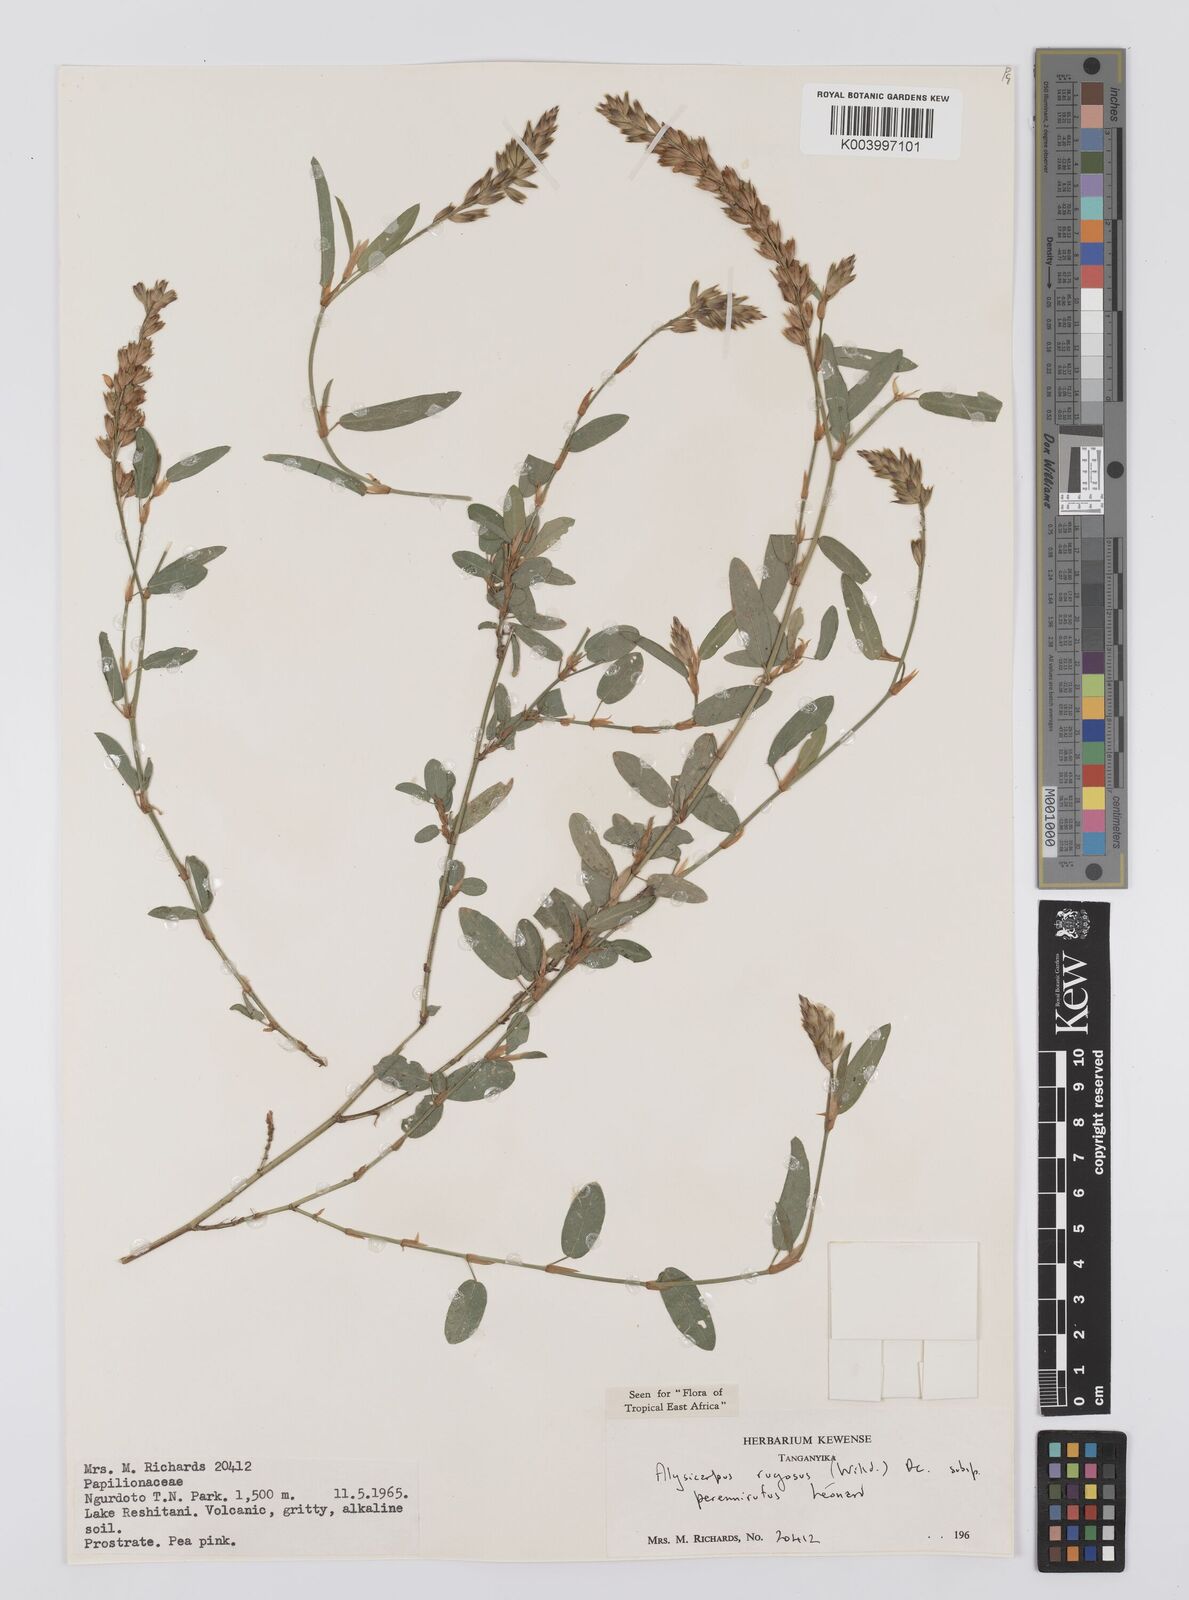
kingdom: Plantae
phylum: Tracheophyta
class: Magnoliopsida
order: Fabales
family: Fabaceae
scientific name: Fabaceae
